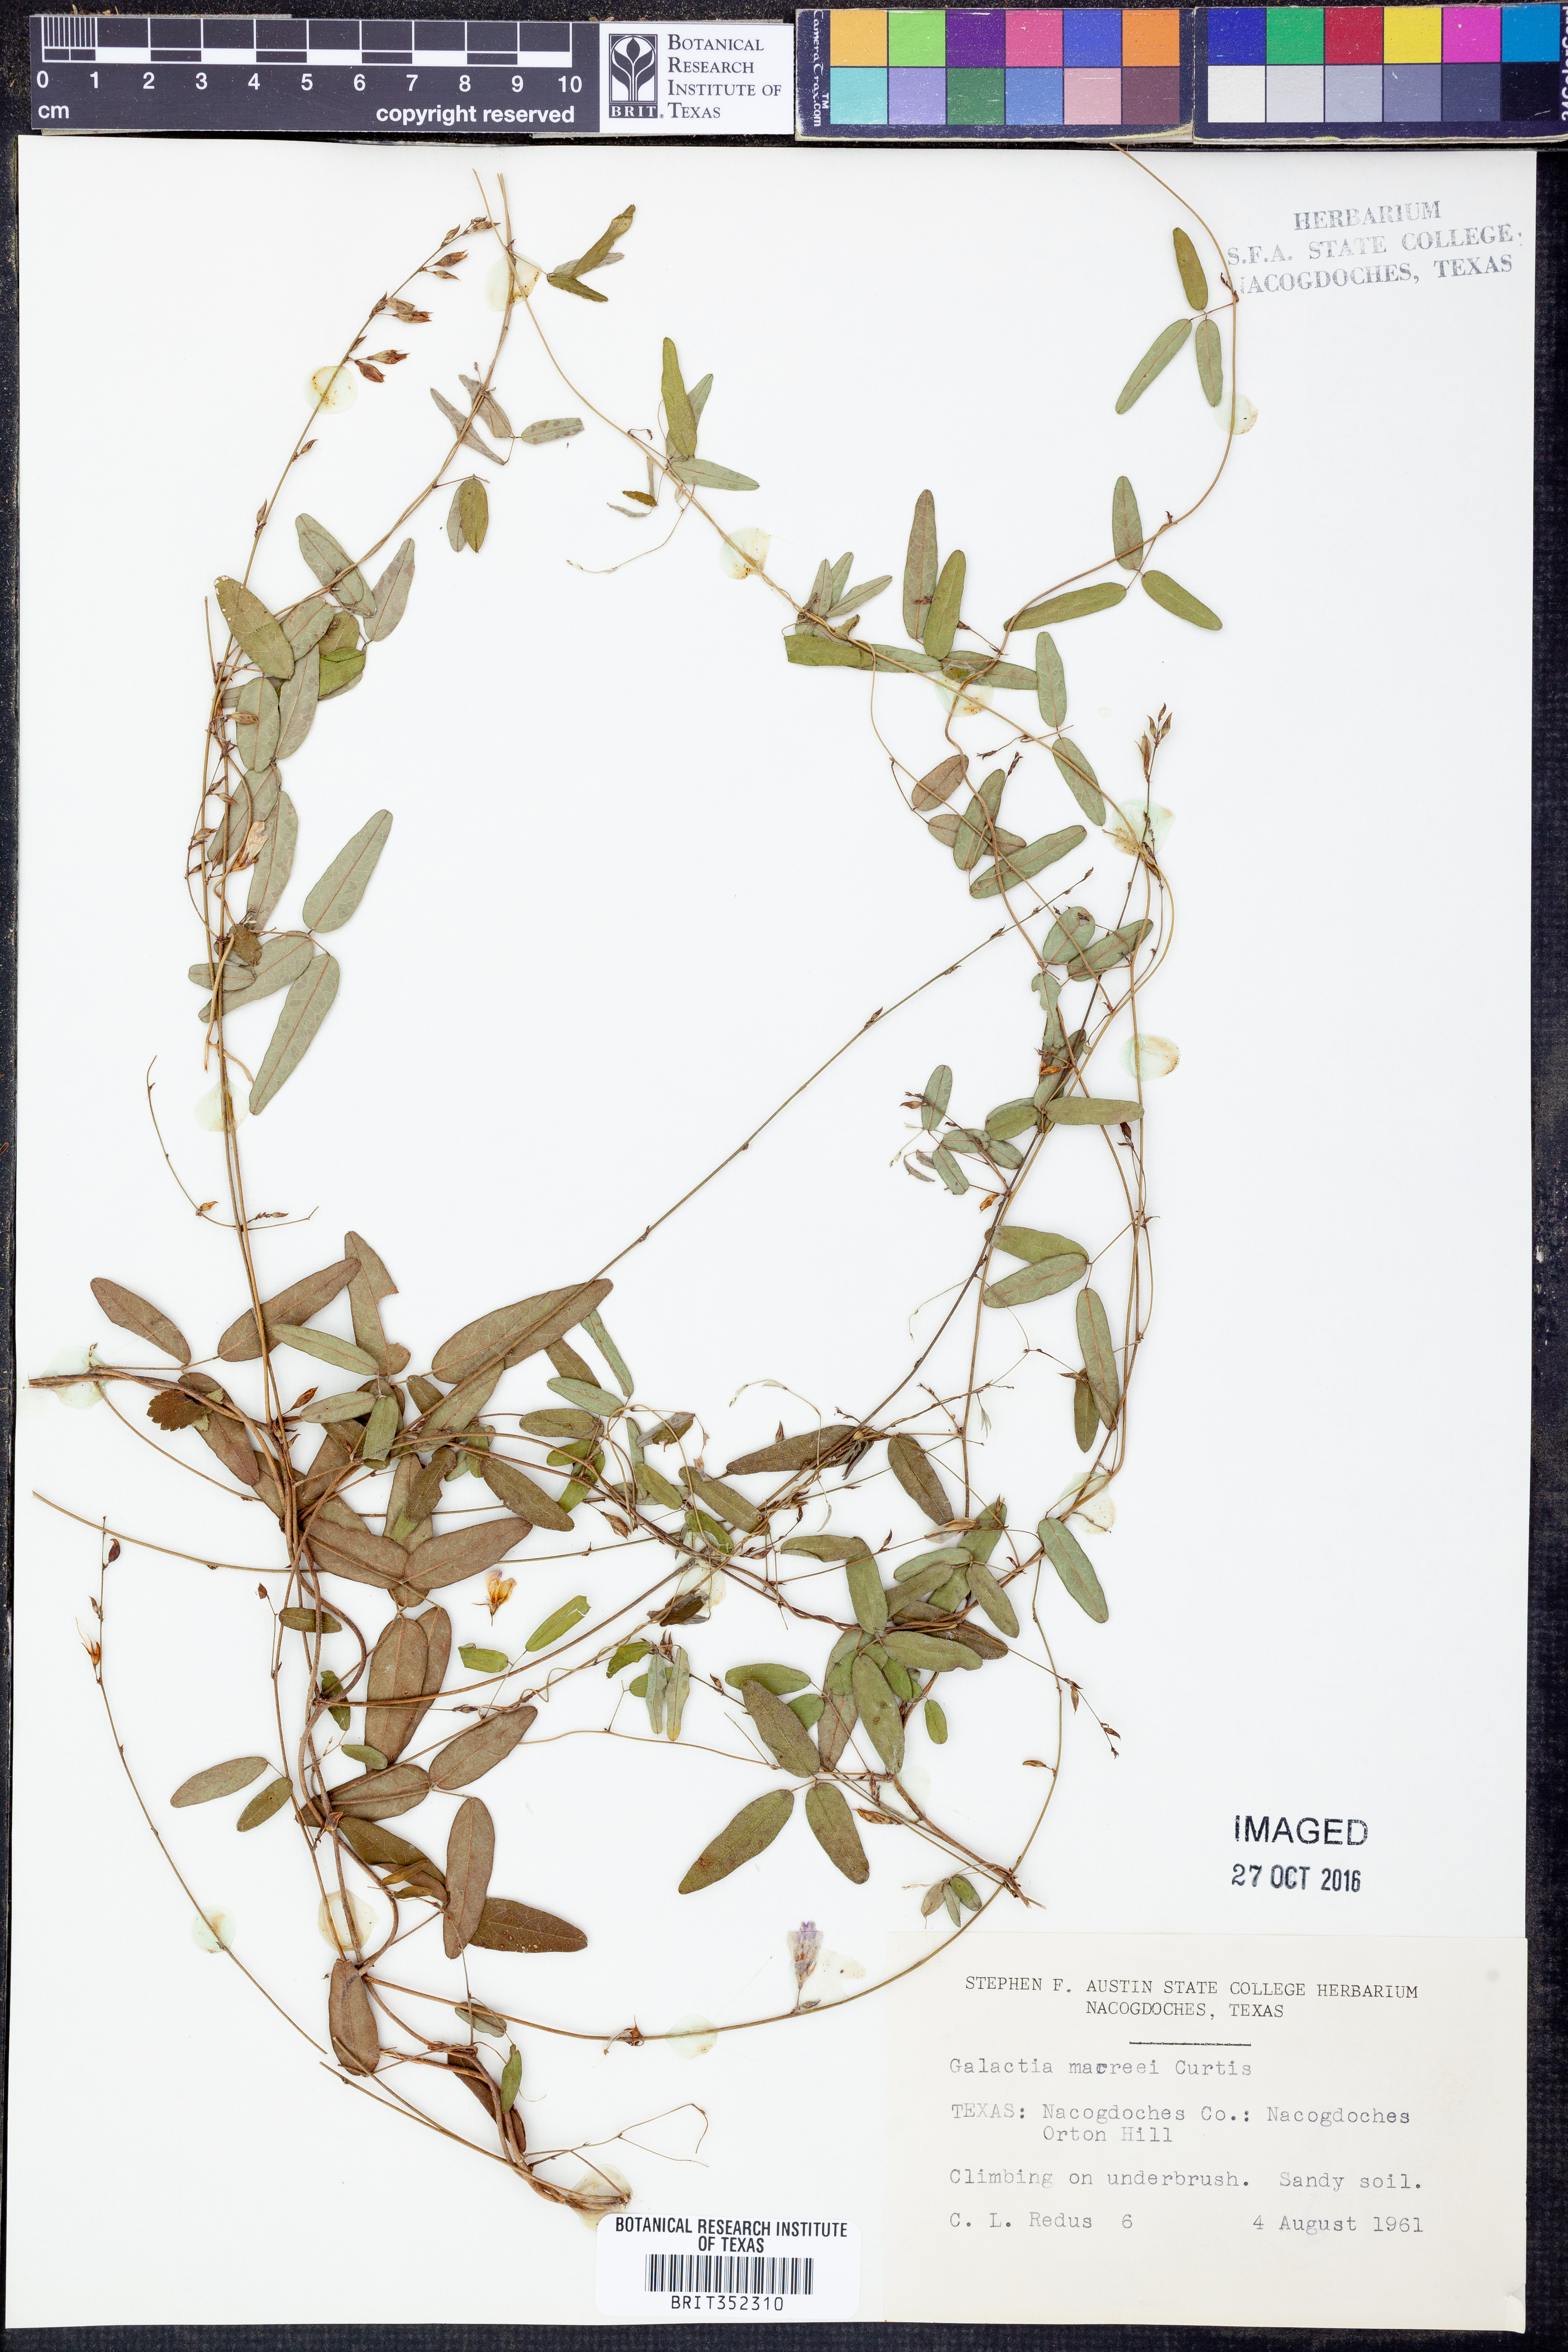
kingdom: Plantae
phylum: Tracheophyta
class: Magnoliopsida
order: Fabales
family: Fabaceae
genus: Galactia
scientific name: Galactia volubilis
